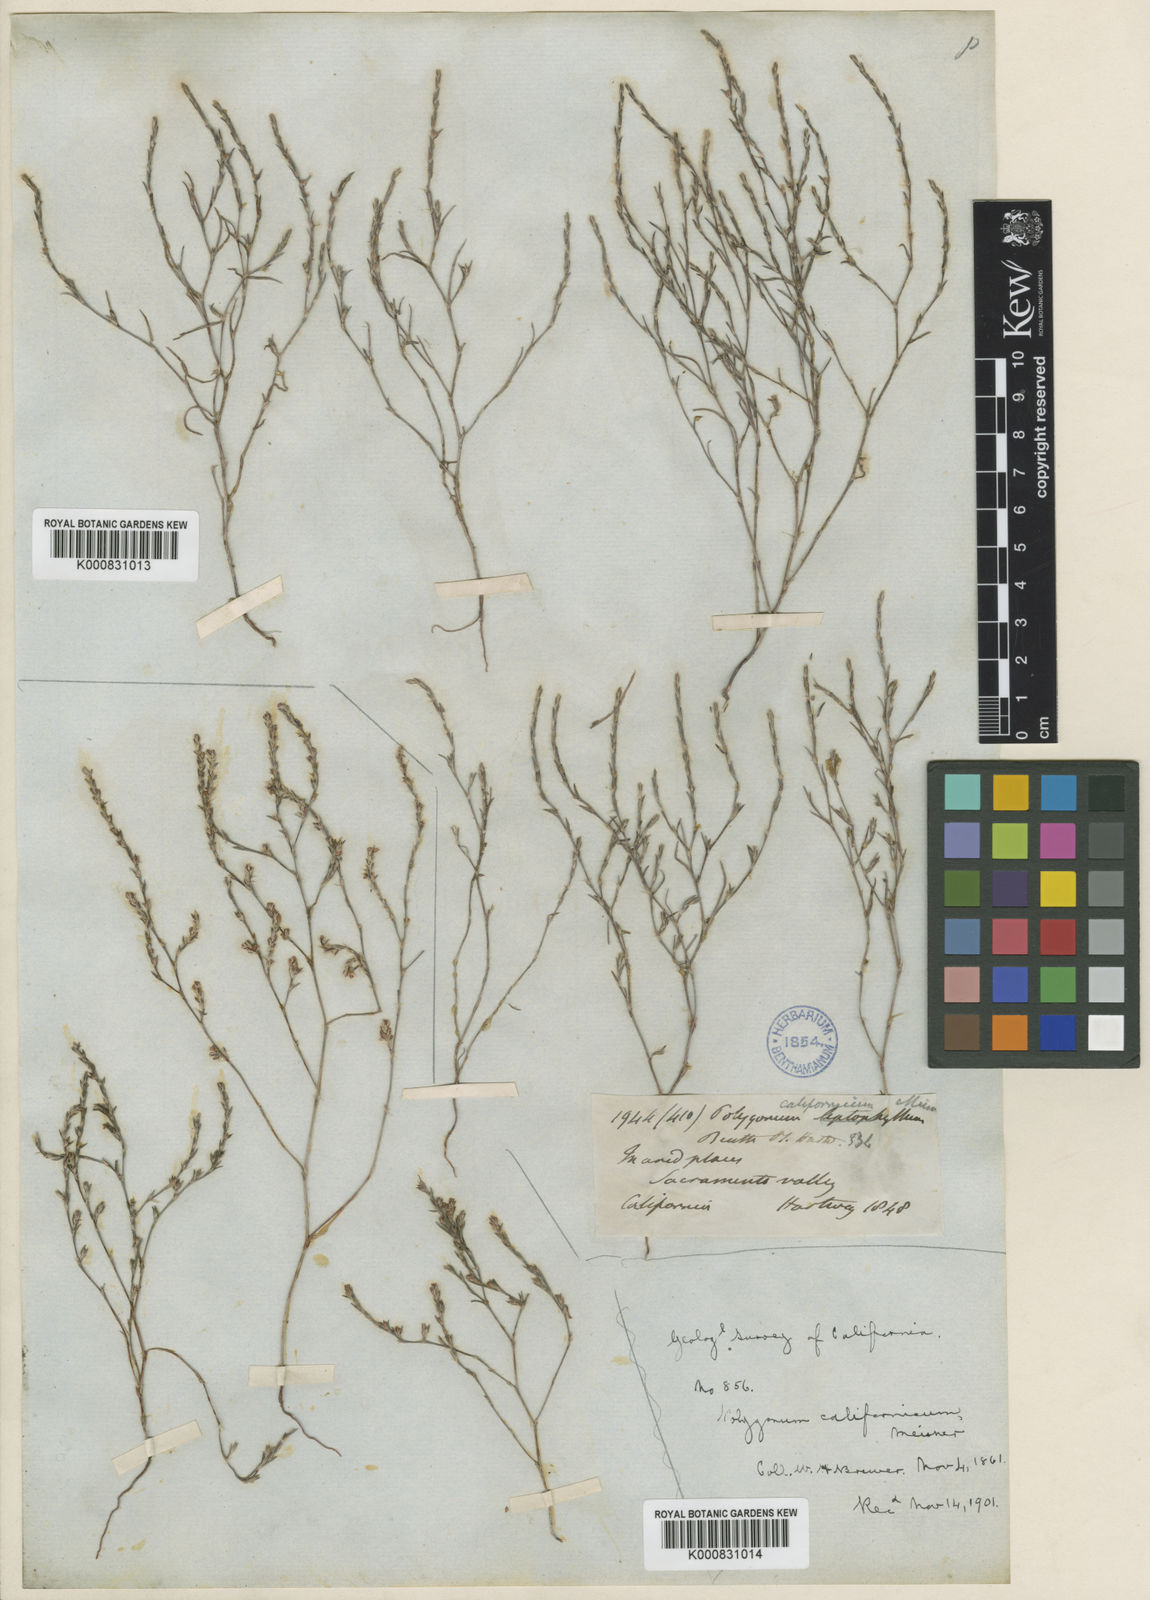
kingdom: Plantae
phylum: Tracheophyta
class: Magnoliopsida
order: Caryophyllales
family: Polygonaceae
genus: Polygonum
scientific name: Polygonum californicum
